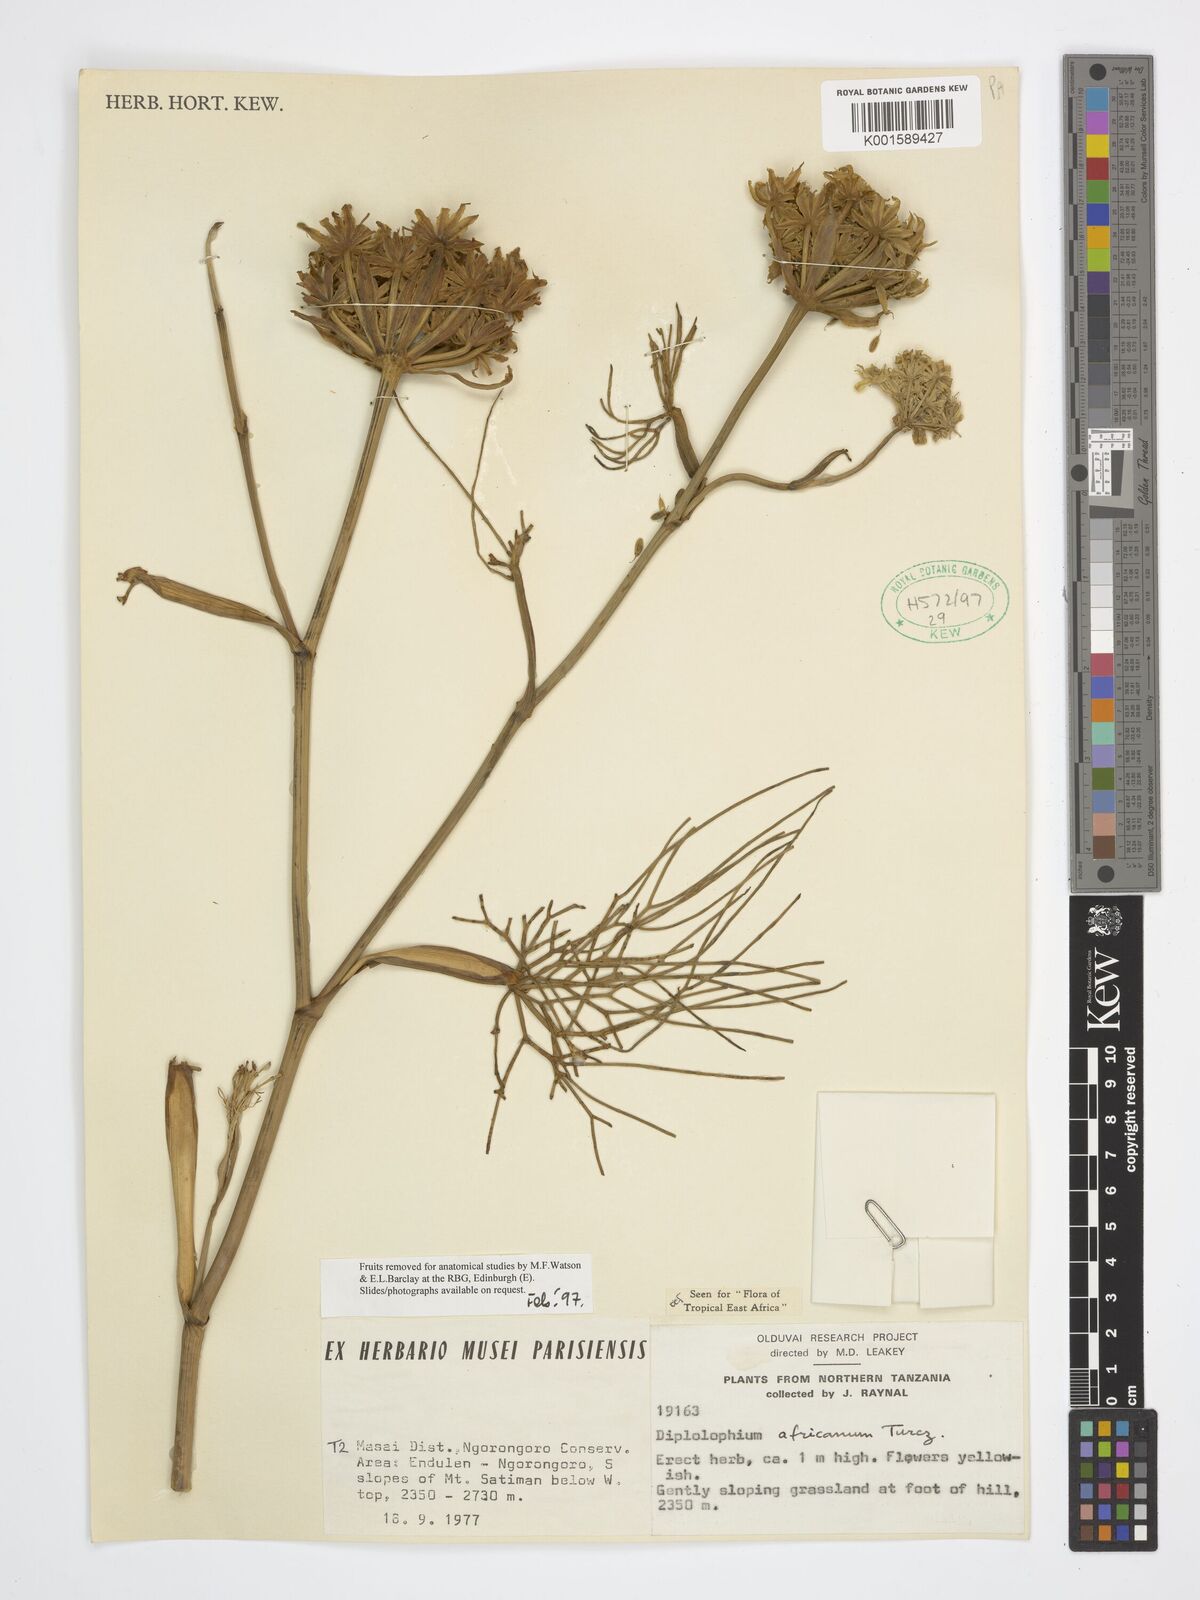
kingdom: Plantae
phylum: Tracheophyta
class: Magnoliopsida
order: Apiales
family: Apiaceae
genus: Diplolophium
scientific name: Diplolophium africanum
